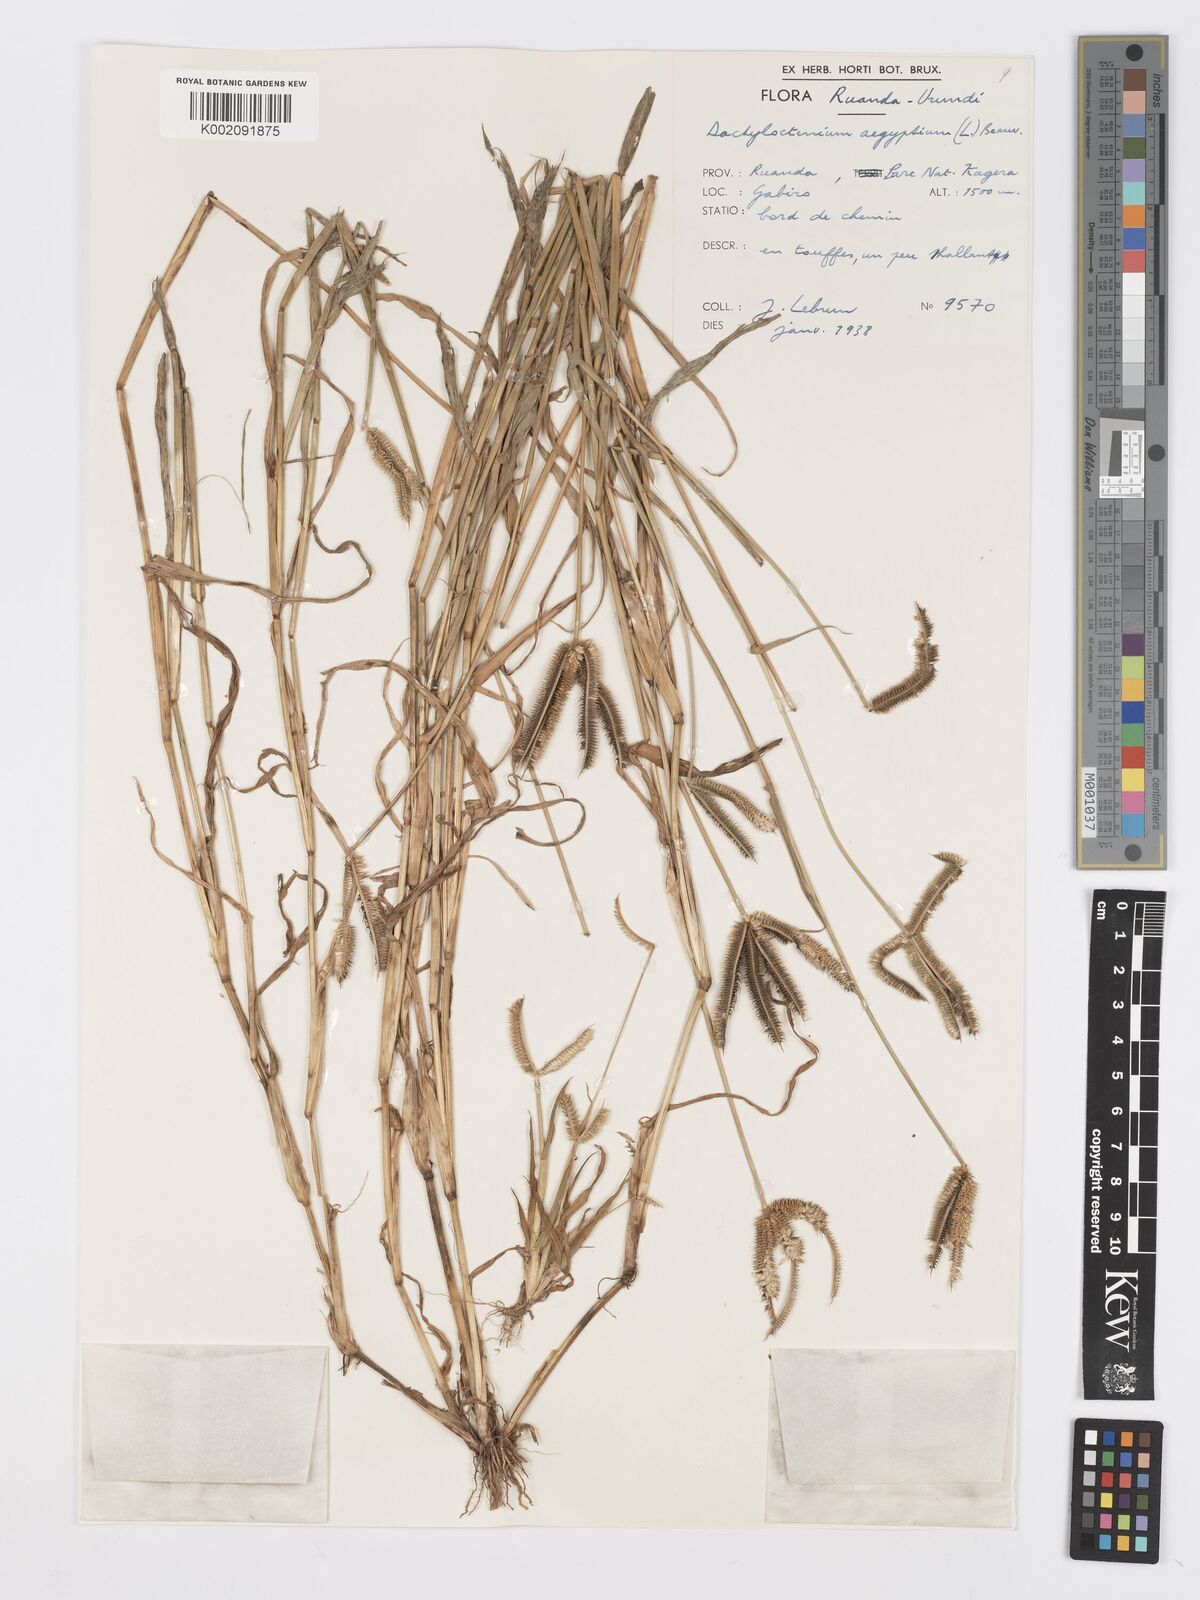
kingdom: Plantae
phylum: Tracheophyta
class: Liliopsida
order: Poales
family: Poaceae
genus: Dactyloctenium
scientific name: Dactyloctenium aegyptium
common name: Egyptian grass
